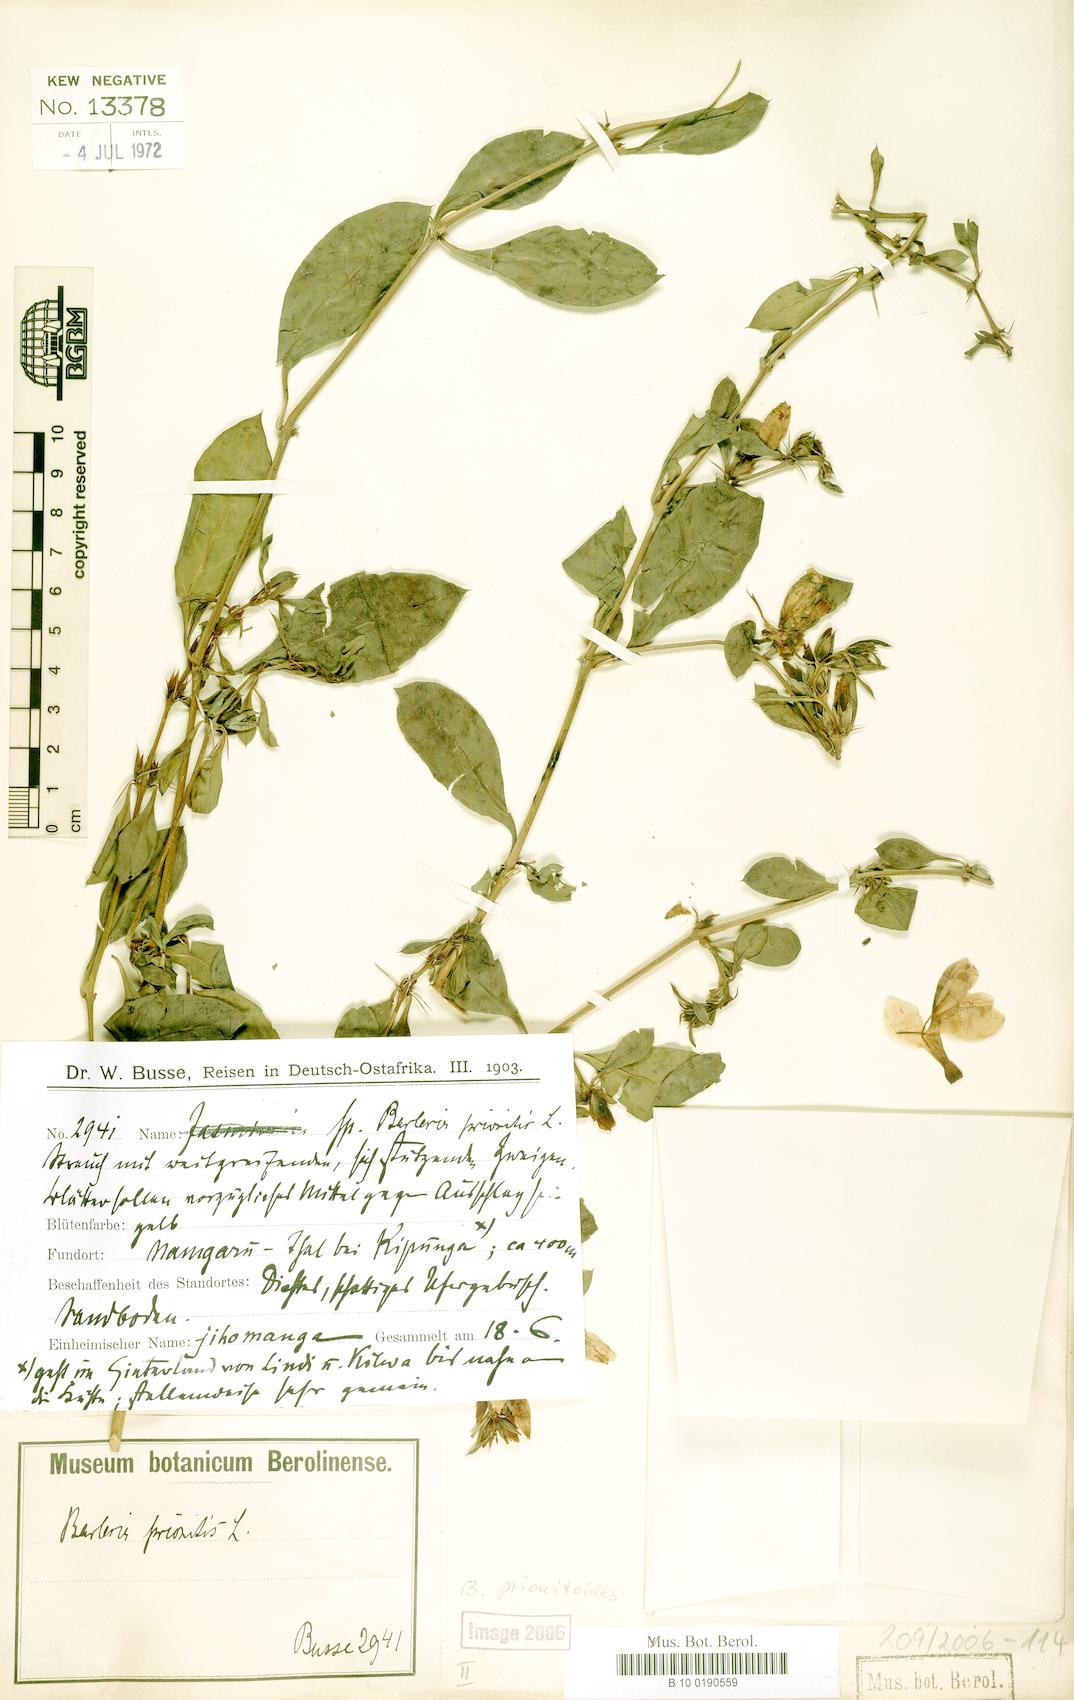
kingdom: Plantae
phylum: Tracheophyta
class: Magnoliopsida
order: Lamiales
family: Acanthaceae
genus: Barleria
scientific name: Barleria prionitis
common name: Barleria
